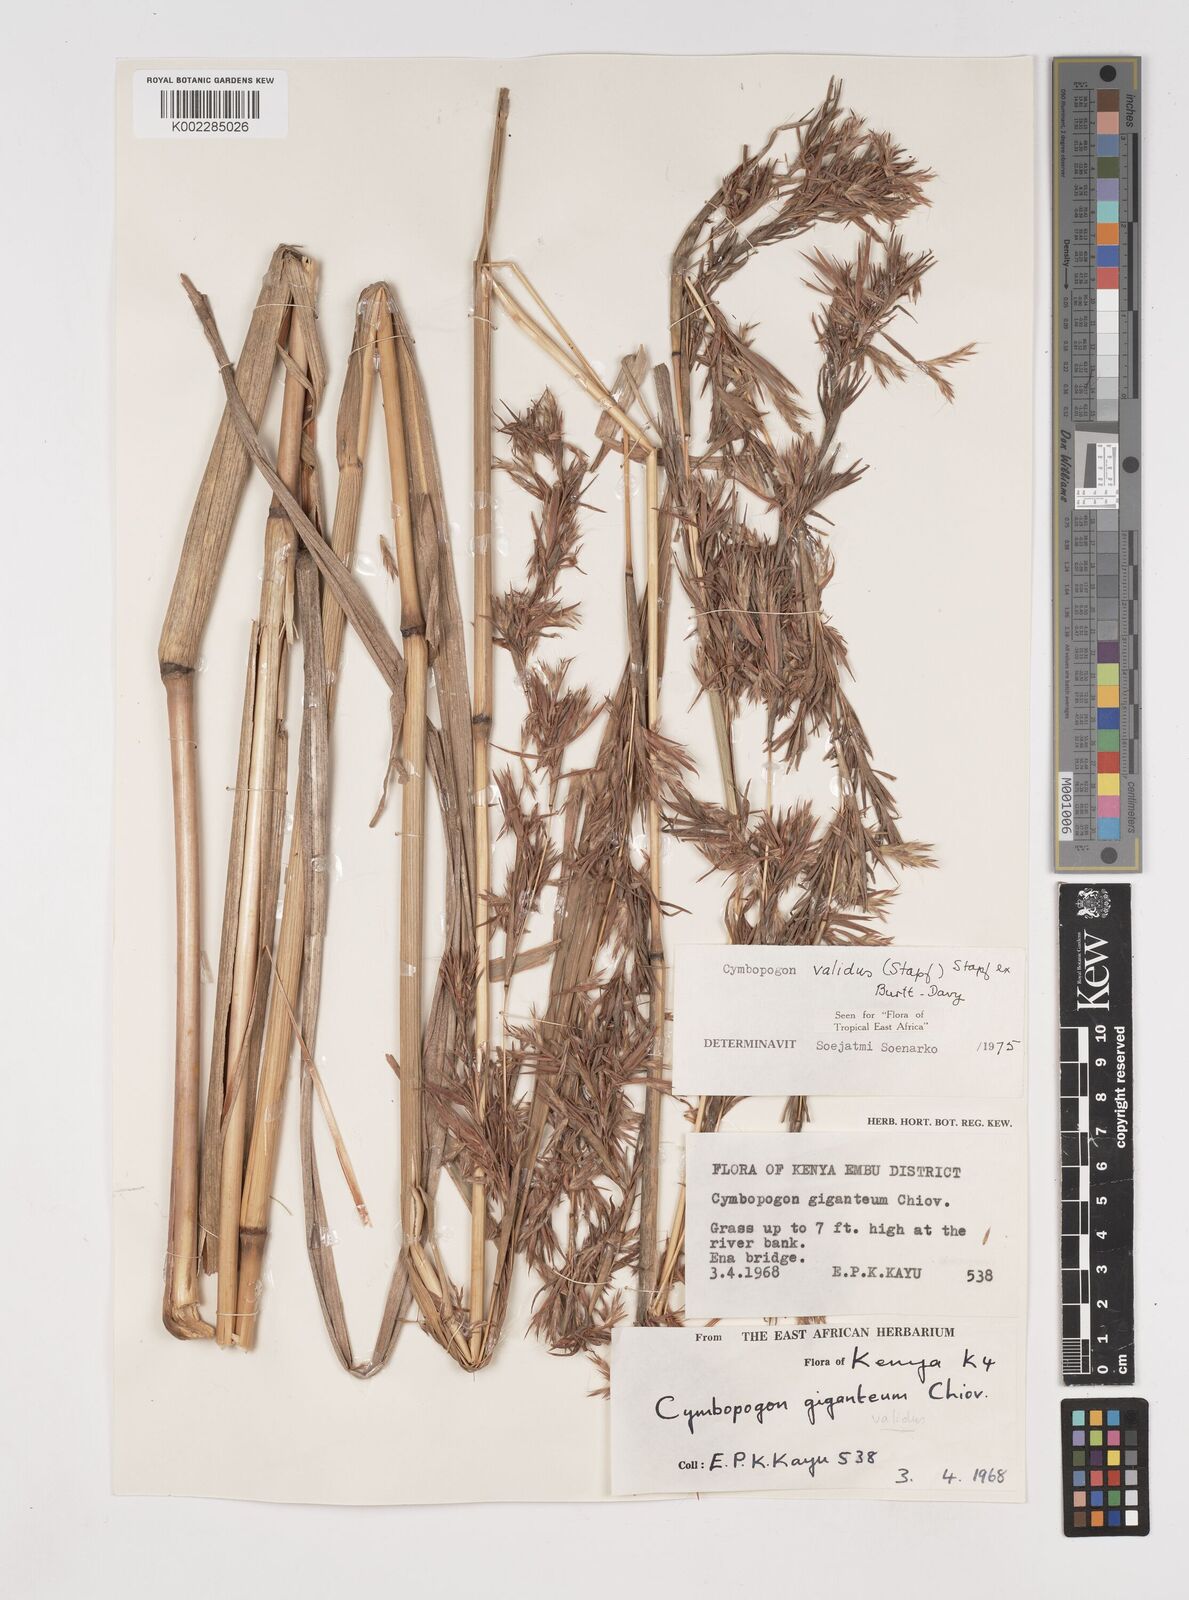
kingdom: Plantae
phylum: Tracheophyta
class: Liliopsida
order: Poales
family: Poaceae
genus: Cymbopogon
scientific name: Cymbopogon
